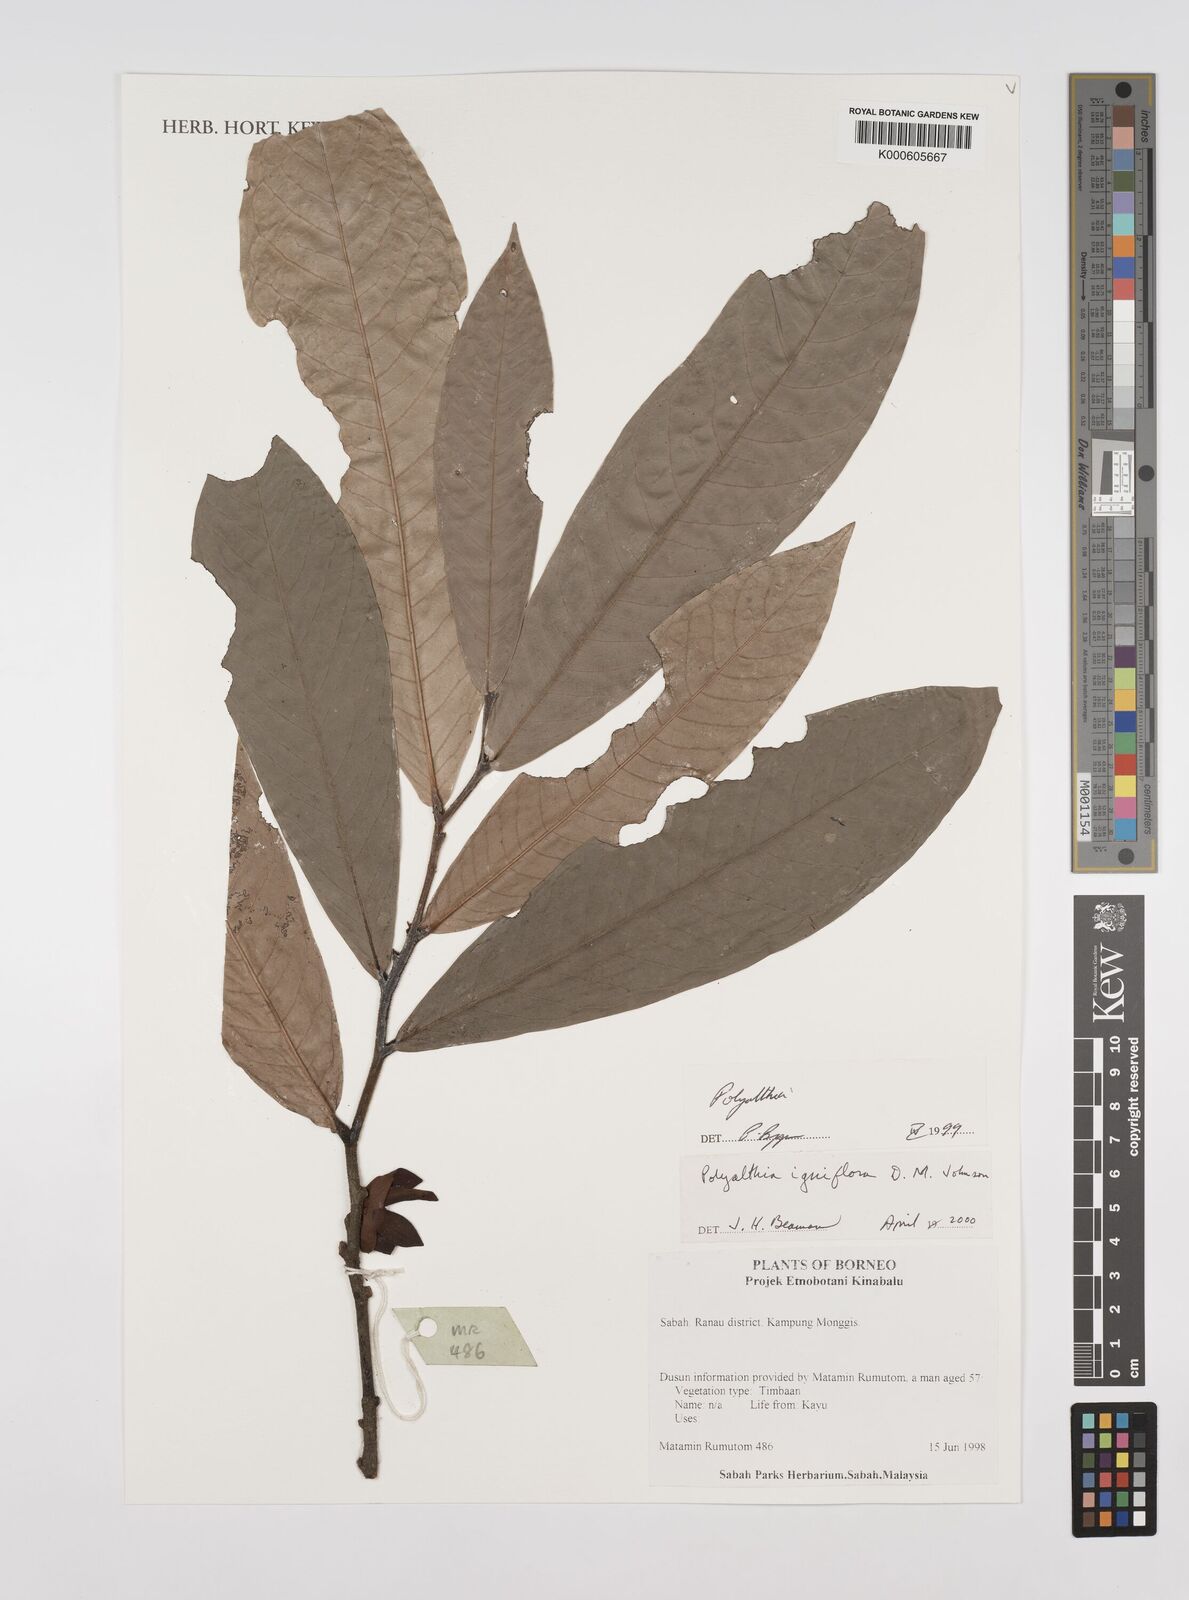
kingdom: Plantae
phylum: Tracheophyta
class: Magnoliopsida
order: Magnoliales
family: Annonaceae
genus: Polyalthia
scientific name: Polyalthia igniflora
